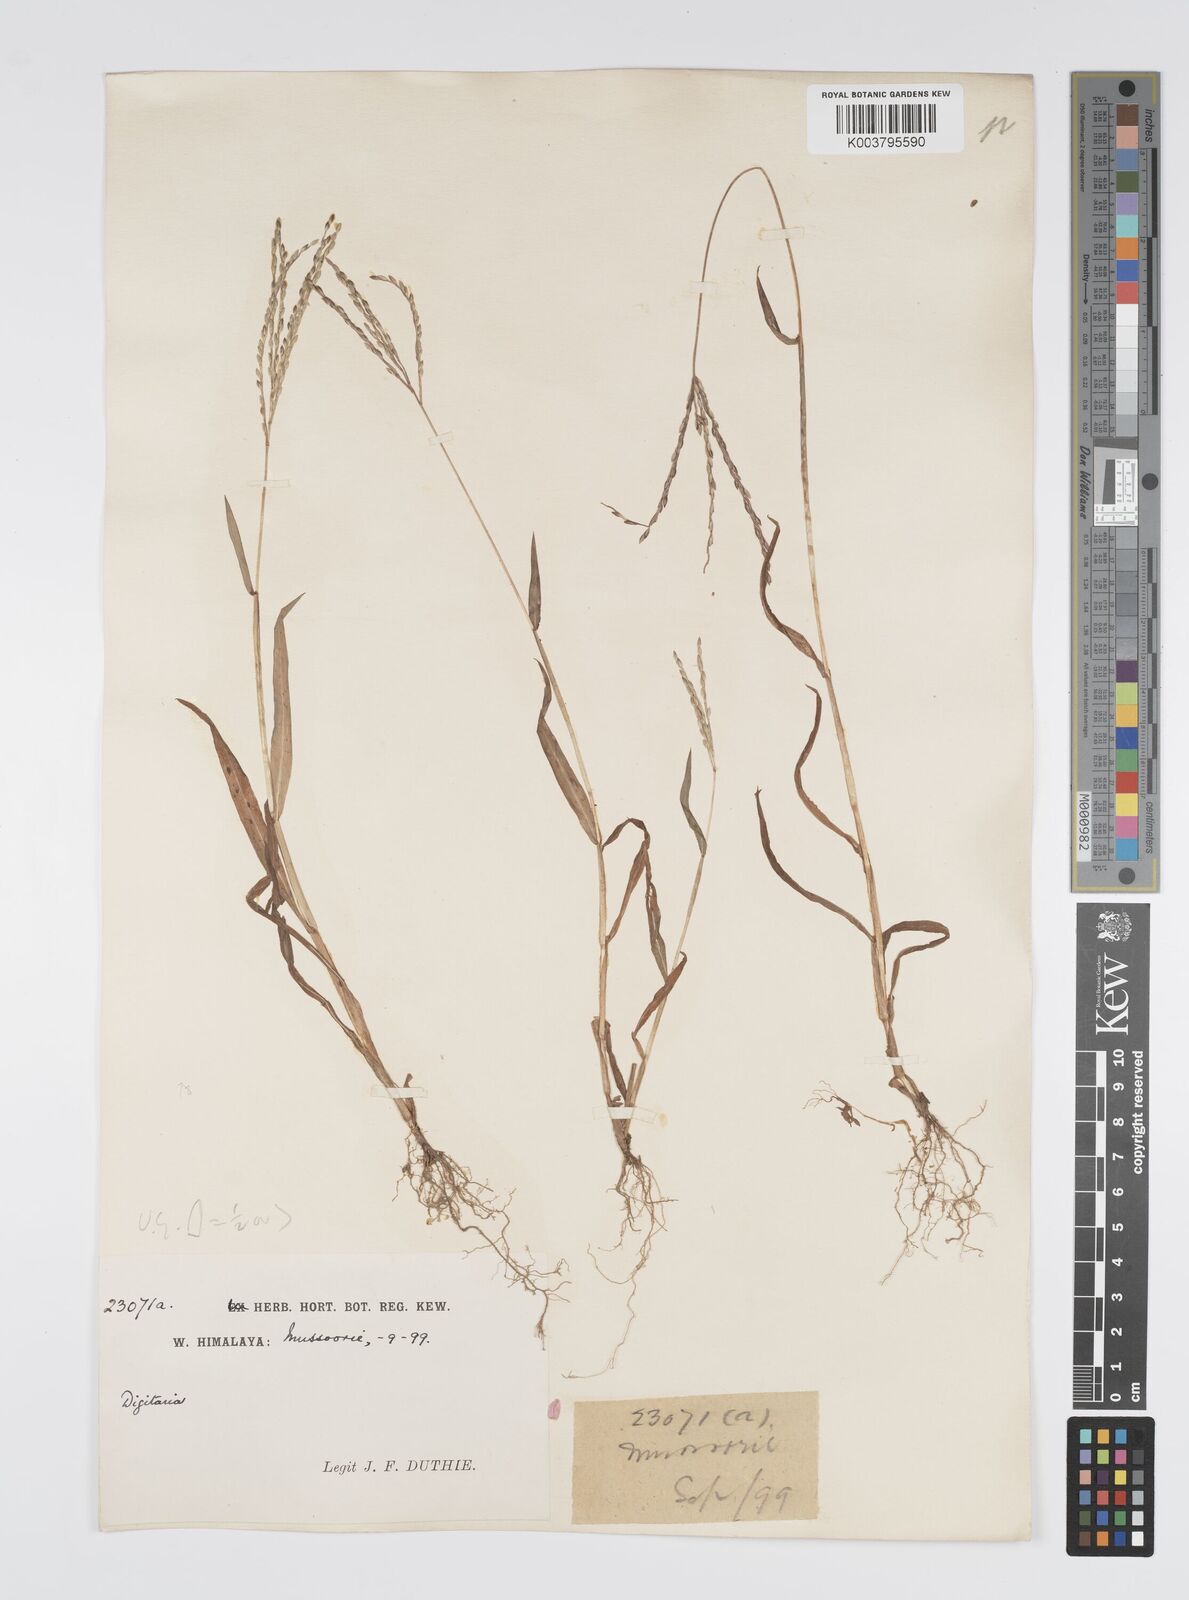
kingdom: Plantae
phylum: Tracheophyta
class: Liliopsida
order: Poales
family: Poaceae
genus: Digitaria
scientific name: Digitaria sanguinalis
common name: Hairy crabgrass
